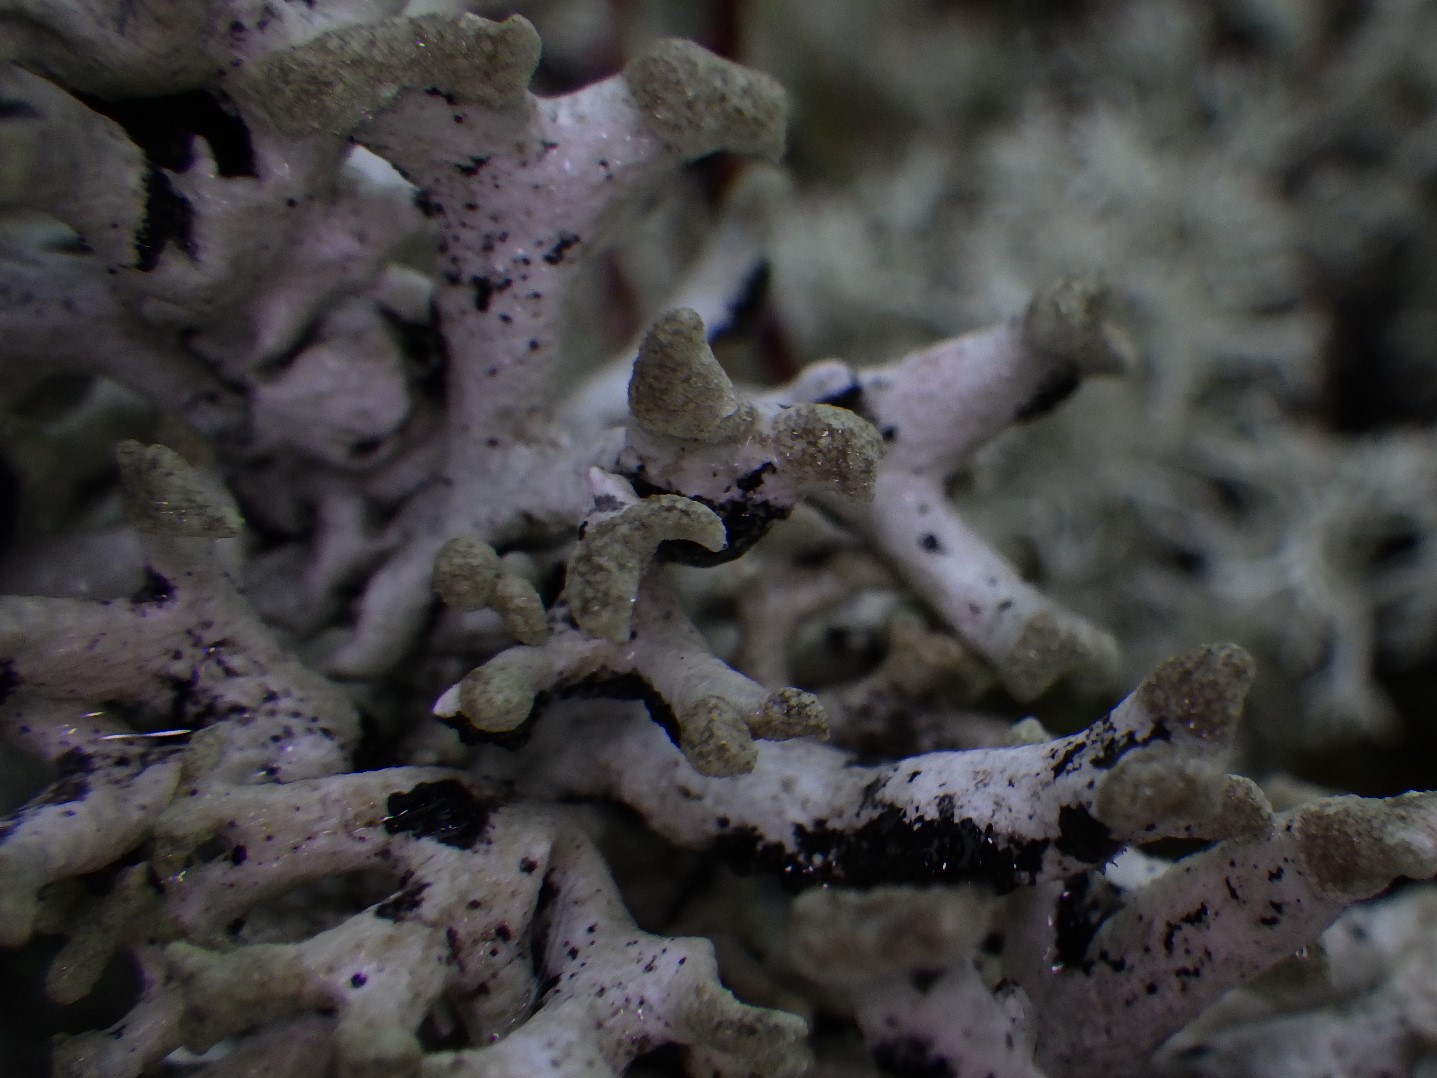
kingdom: Fungi
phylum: Ascomycota
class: Lecanoromycetes
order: Lecanorales
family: Parmeliaceae
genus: Hypogymnia
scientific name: Hypogymnia tubulosa
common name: finger-kvistlav
